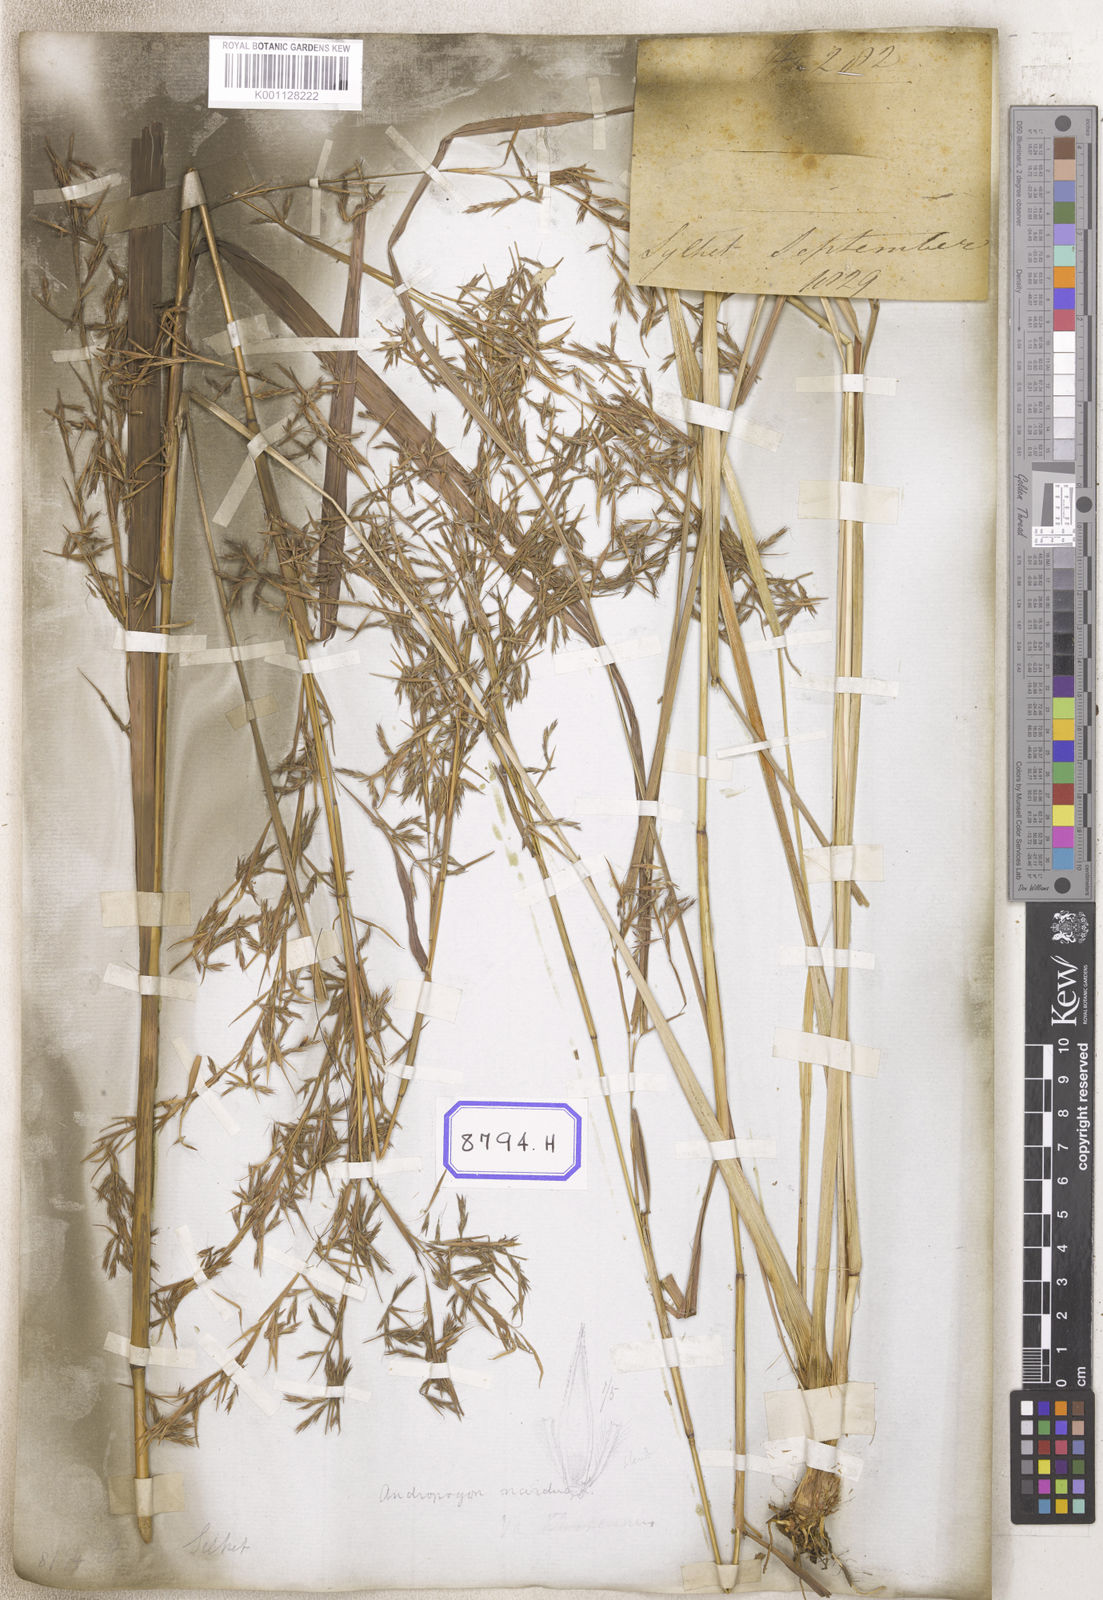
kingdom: Plantae
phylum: Tracheophyta
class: Liliopsida
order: Poales
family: Poaceae
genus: Cymbopogon
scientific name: Cymbopogon schoenanthus
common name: Geranium grass
